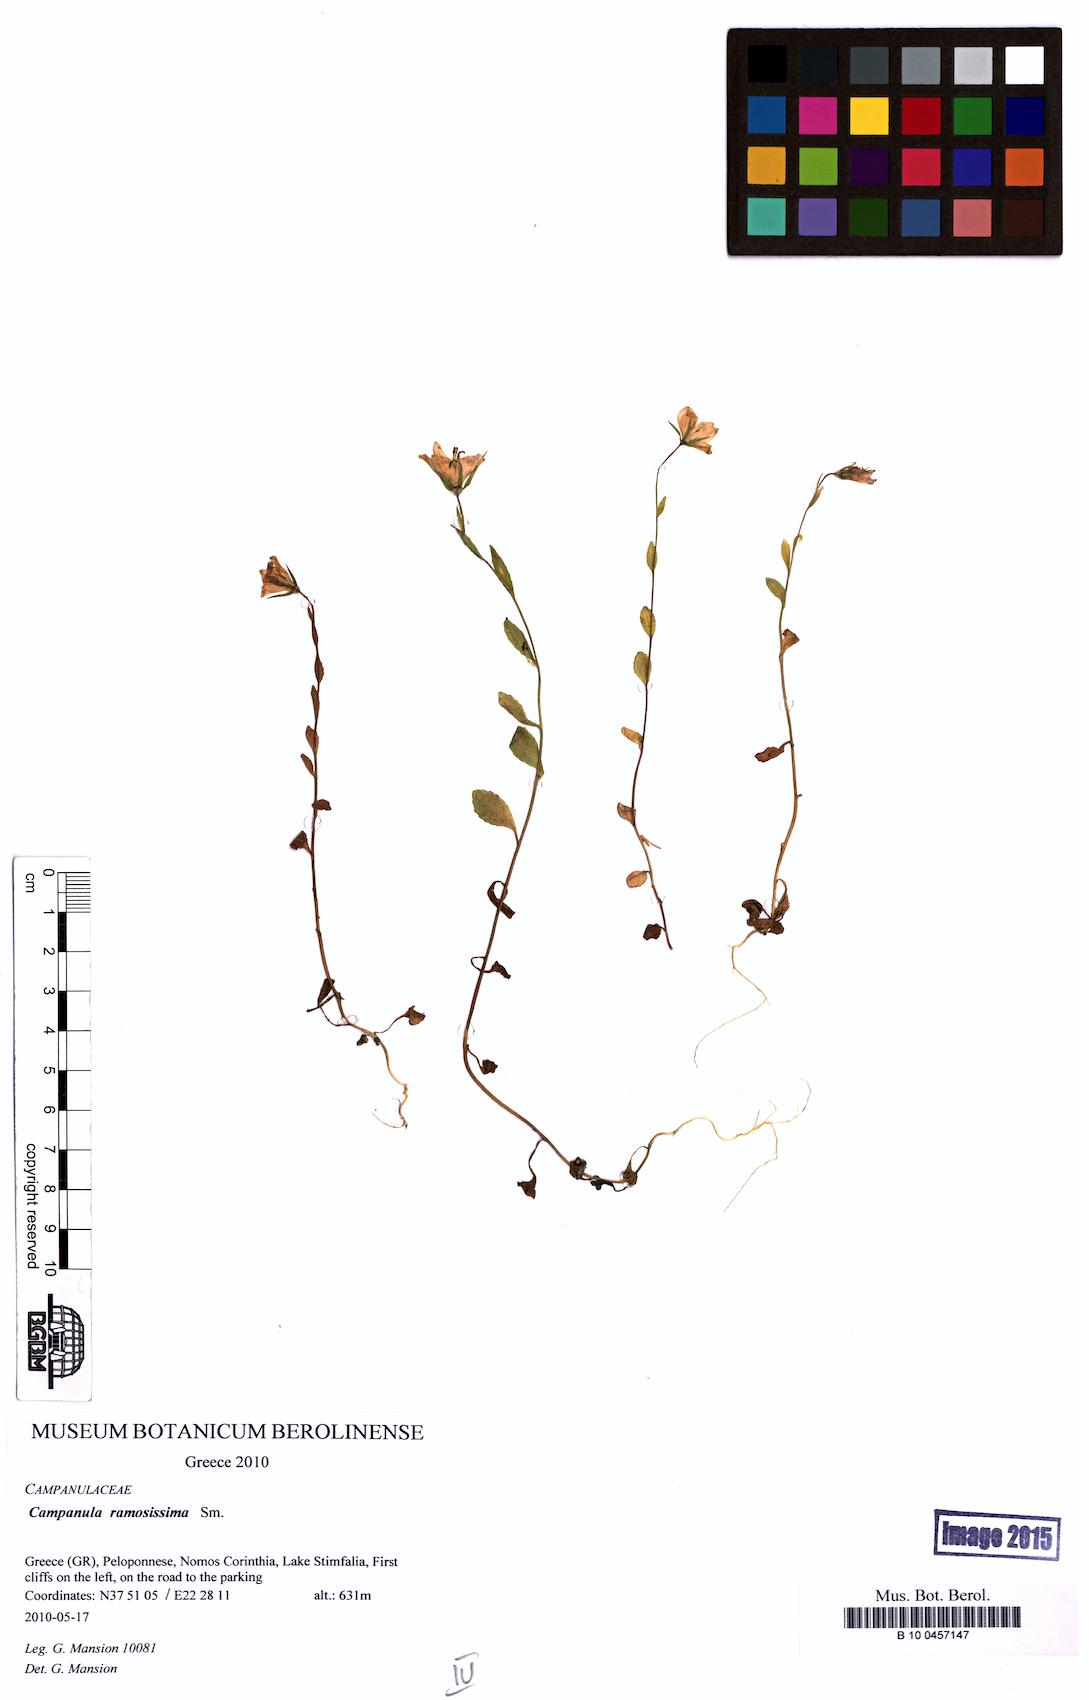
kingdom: Plantae
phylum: Tracheophyta
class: Magnoliopsida
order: Asterales
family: Campanulaceae
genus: Campanula
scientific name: Campanula ramosissima
